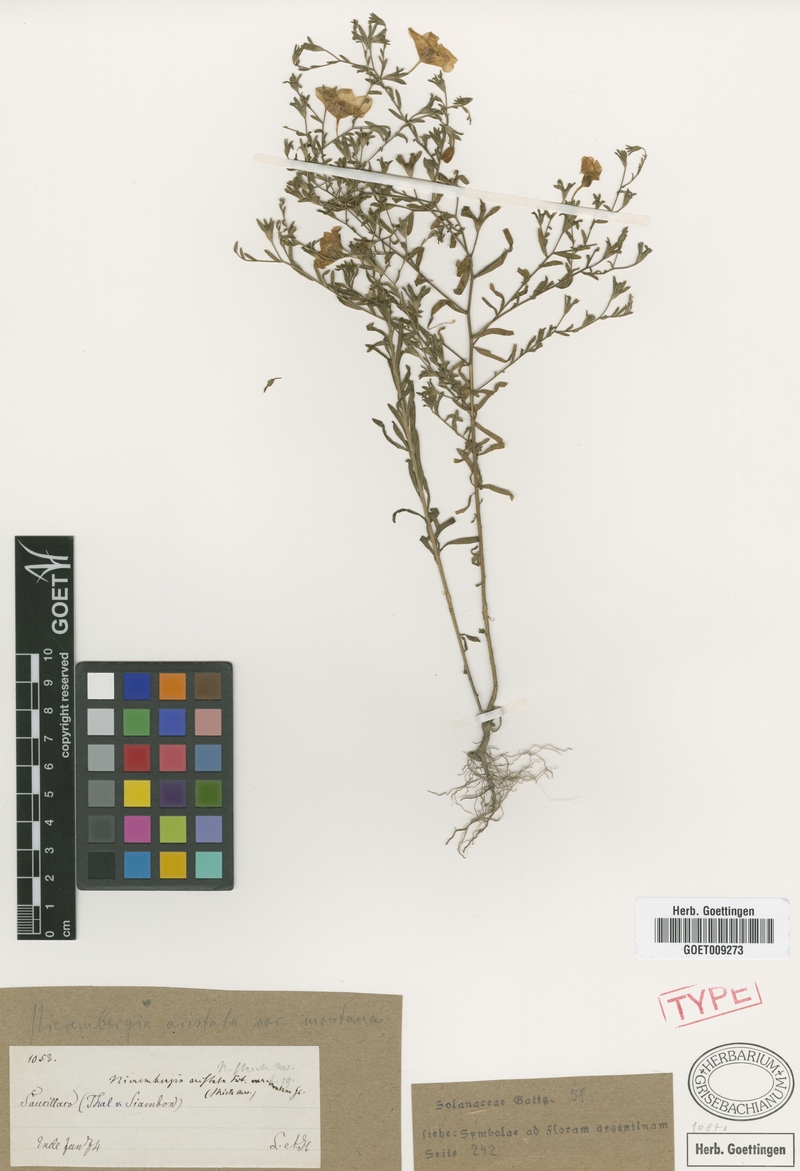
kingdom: Plantae
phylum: Tracheophyta
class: Magnoliopsida
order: Solanales
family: Solanaceae
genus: Nierembergia
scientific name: Nierembergia linariifolia
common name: Dwarf cupflower
